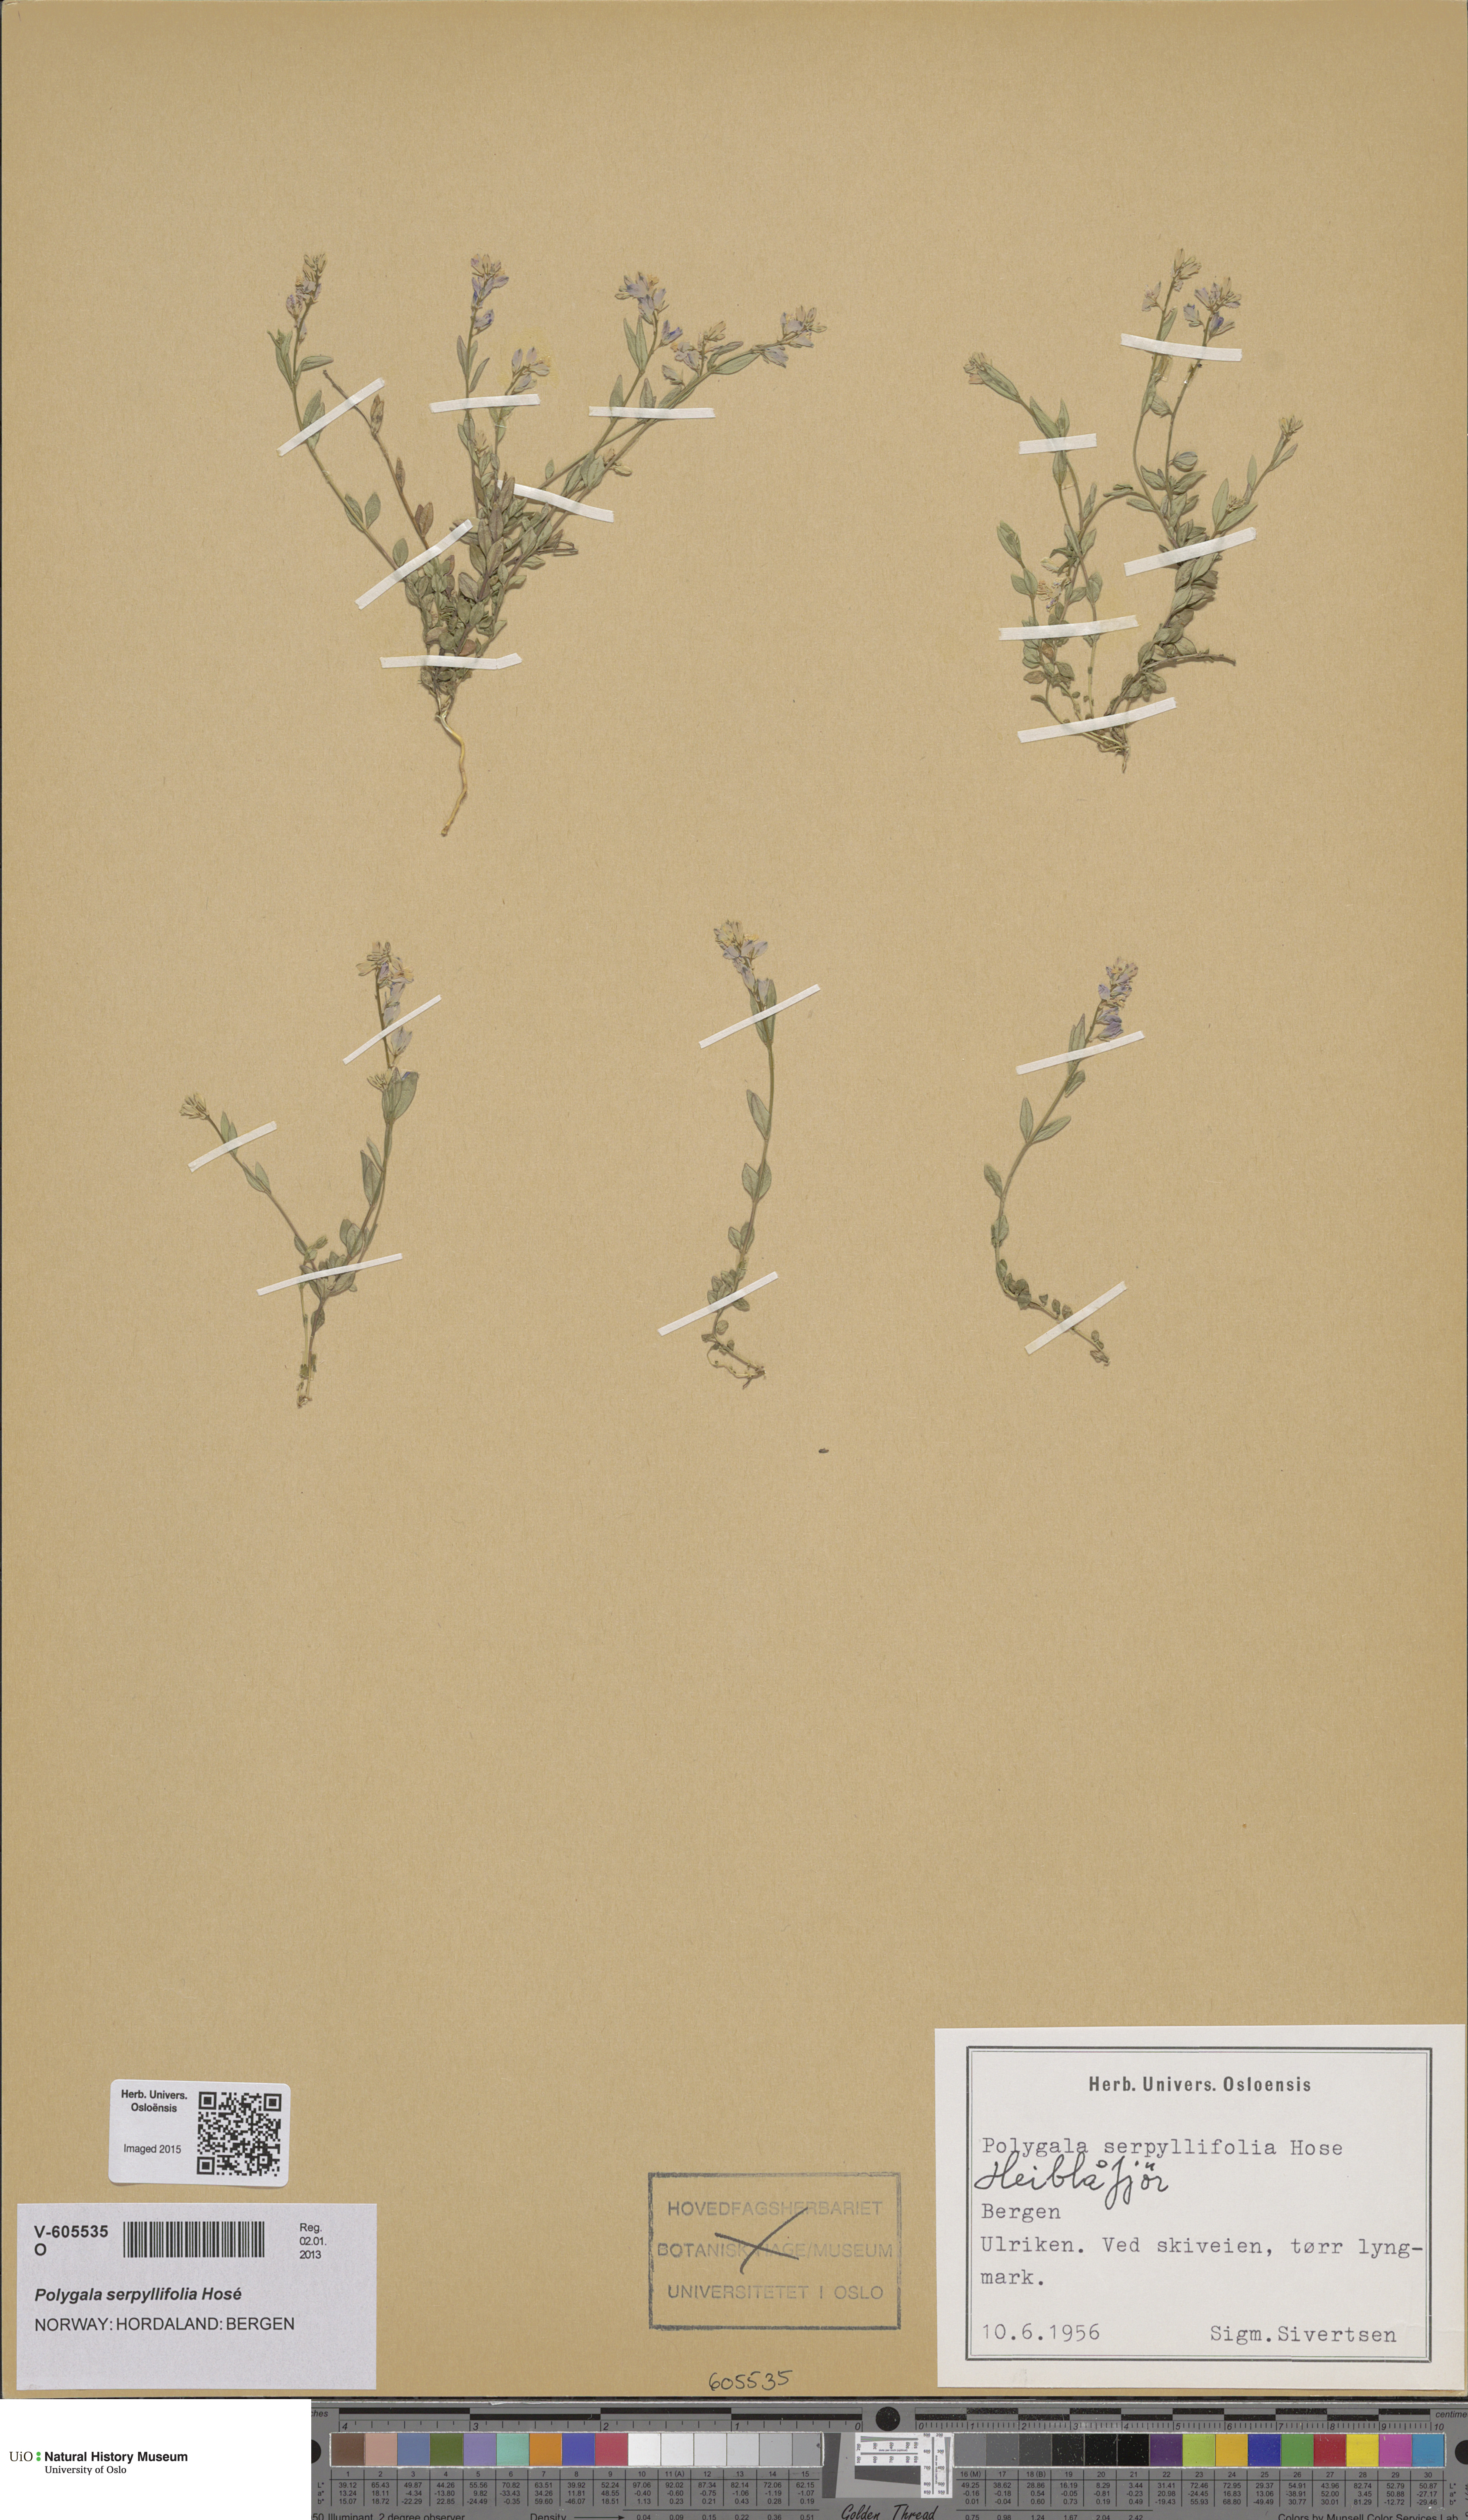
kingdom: Plantae
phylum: Tracheophyta
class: Magnoliopsida
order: Fabales
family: Polygalaceae
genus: Polygala
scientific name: Polygala serpyllifolia
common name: Heath milkwort
